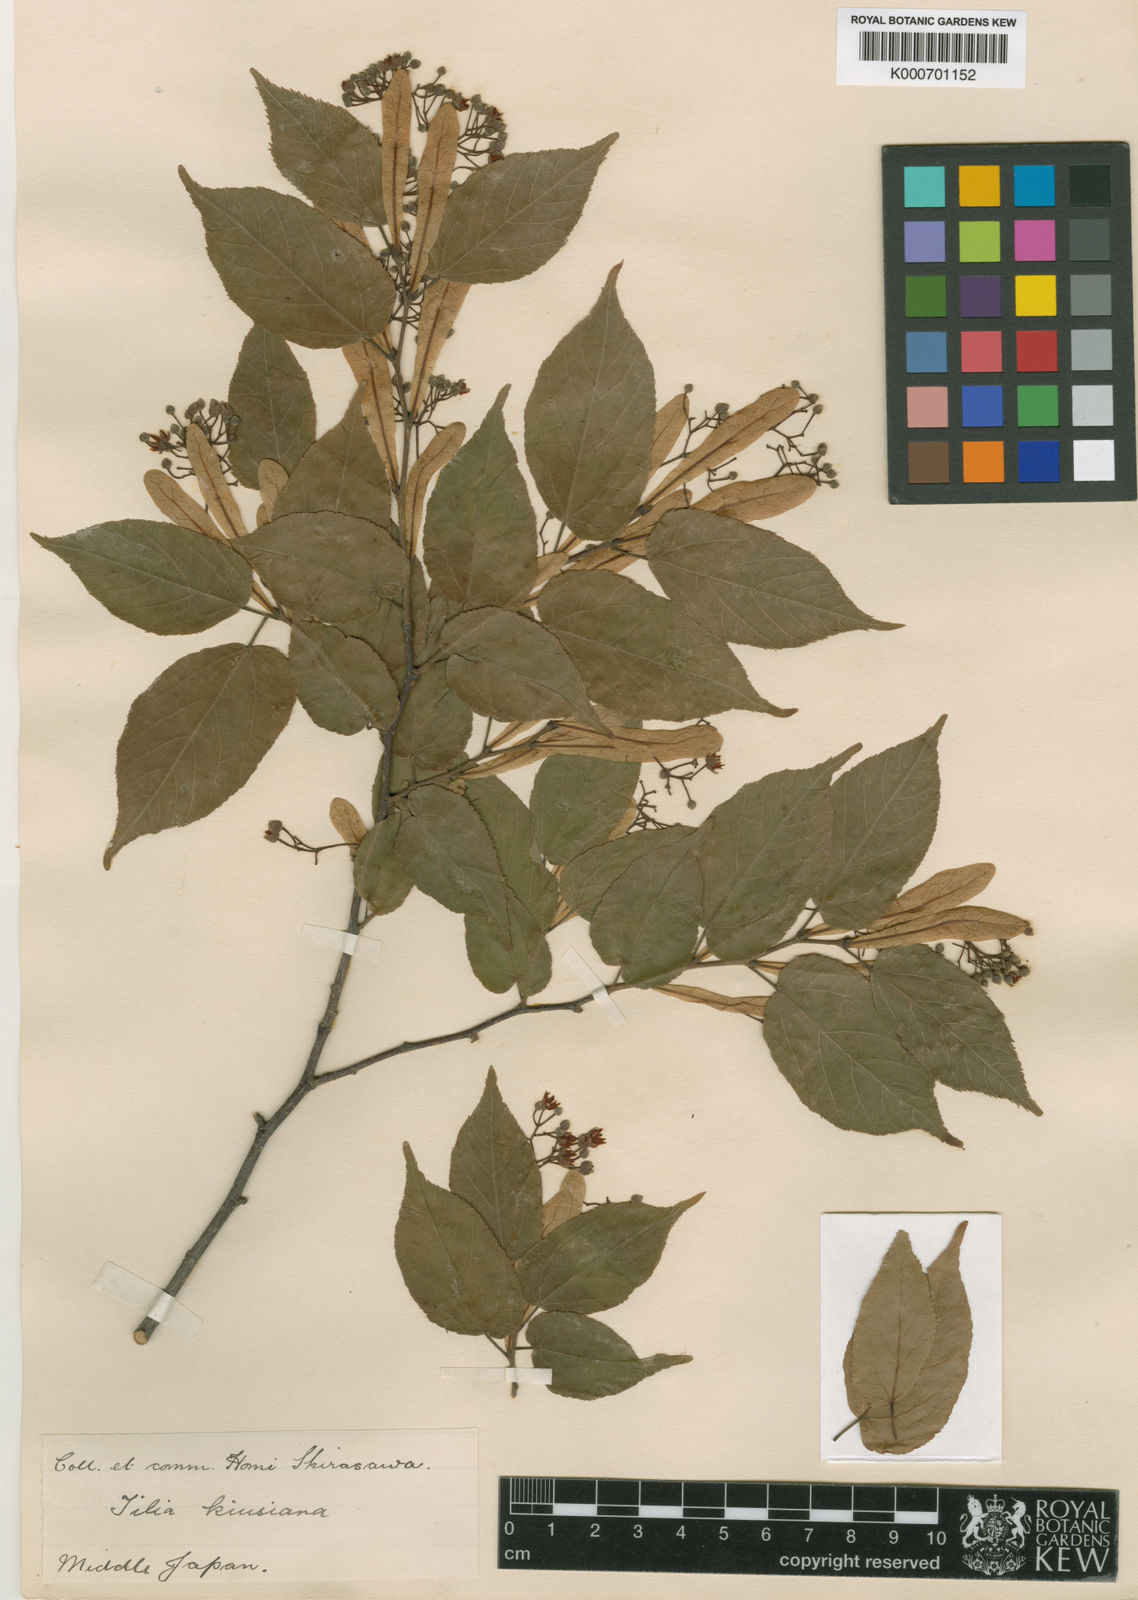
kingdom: Plantae
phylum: Tracheophyta
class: Magnoliopsida
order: Malvales
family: Malvaceae
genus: Tilia
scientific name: Tilia kiusiana
